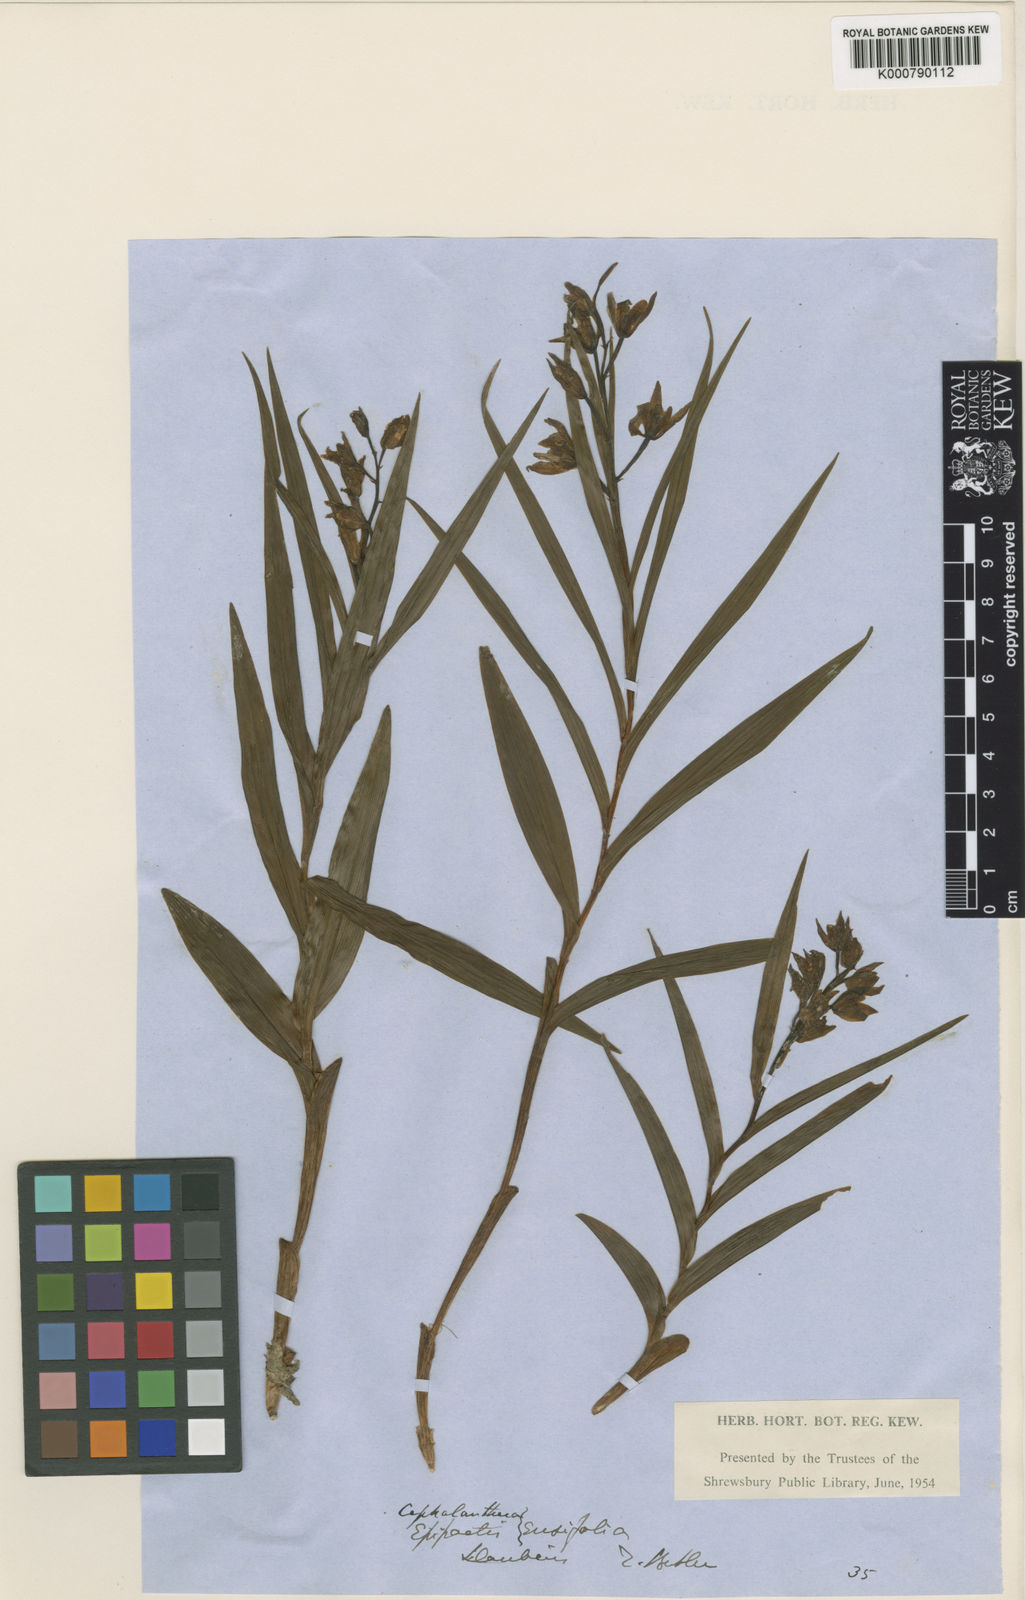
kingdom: Plantae
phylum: Tracheophyta
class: Liliopsida
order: Asparagales
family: Orchidaceae
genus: Cephalanthera
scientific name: Cephalanthera longifolia
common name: Narrow-leaved helleborine
